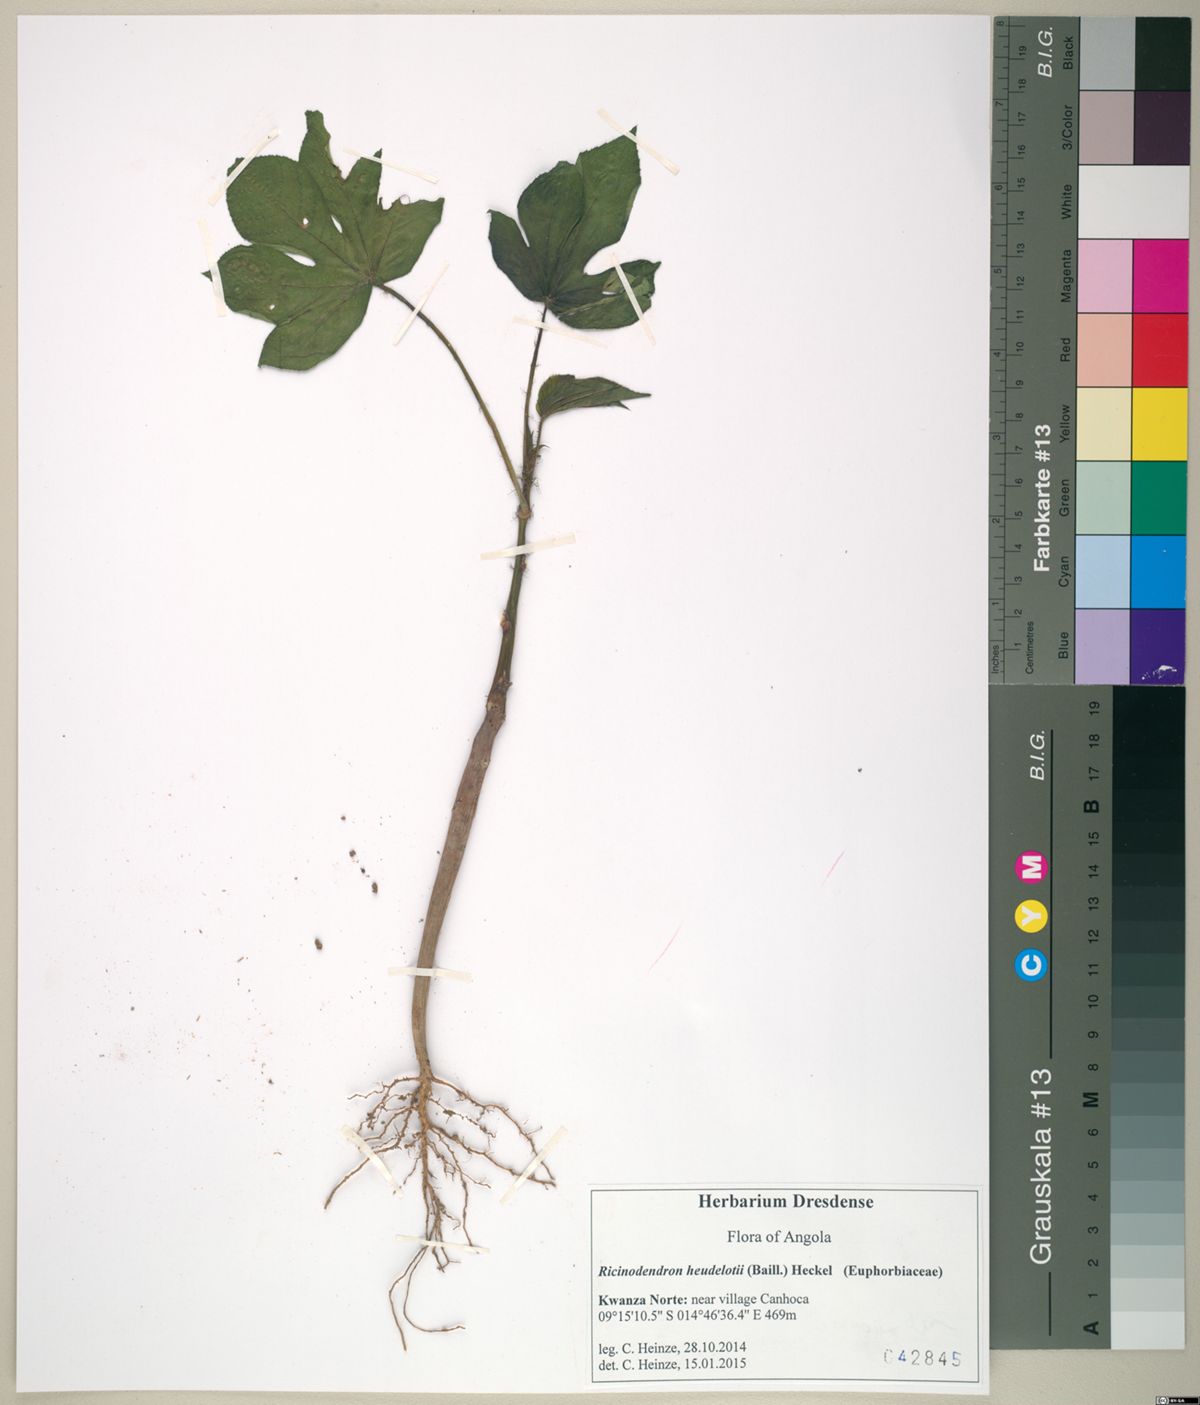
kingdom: Plantae
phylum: Tracheophyta
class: Magnoliopsida
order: Malpighiales
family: Euphorbiaceae
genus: Ricinodendron
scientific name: Ricinodendron heudelotii
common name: African nut-tree
